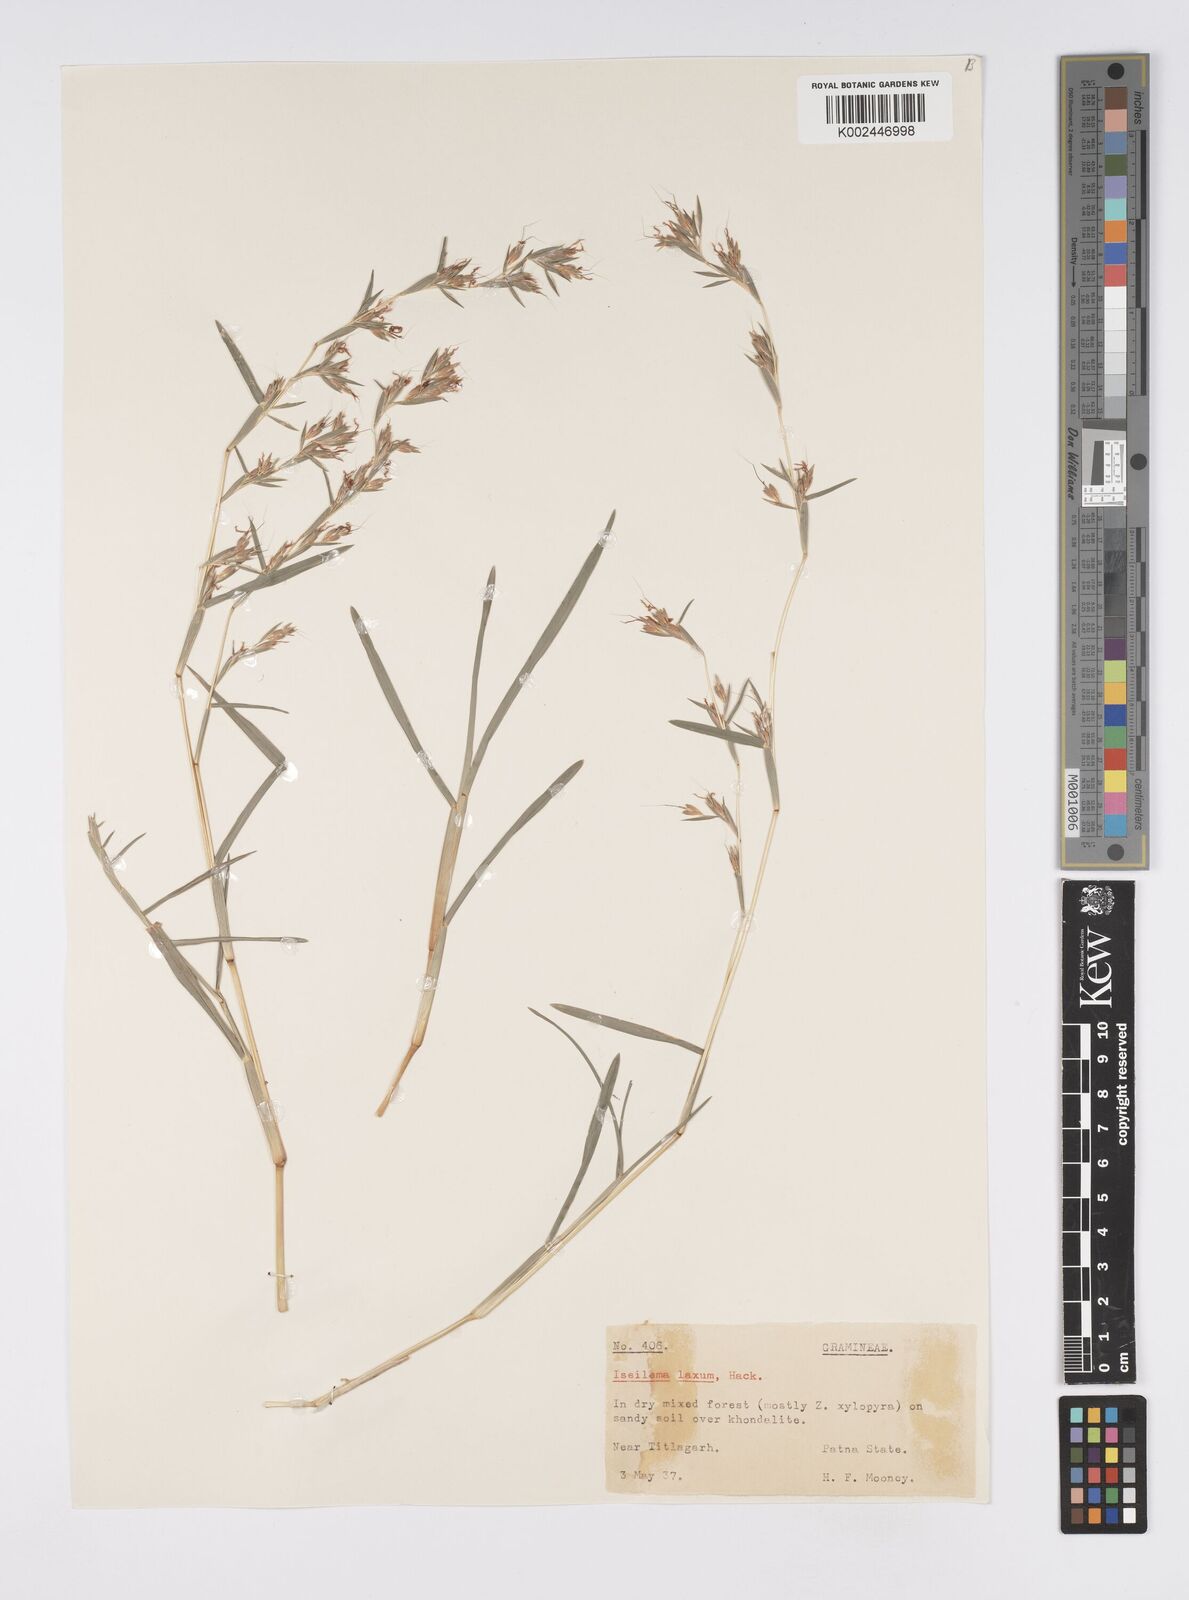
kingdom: Plantae
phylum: Tracheophyta
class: Liliopsida
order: Poales
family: Poaceae
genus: Iseilema
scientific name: Iseilema prostratum
